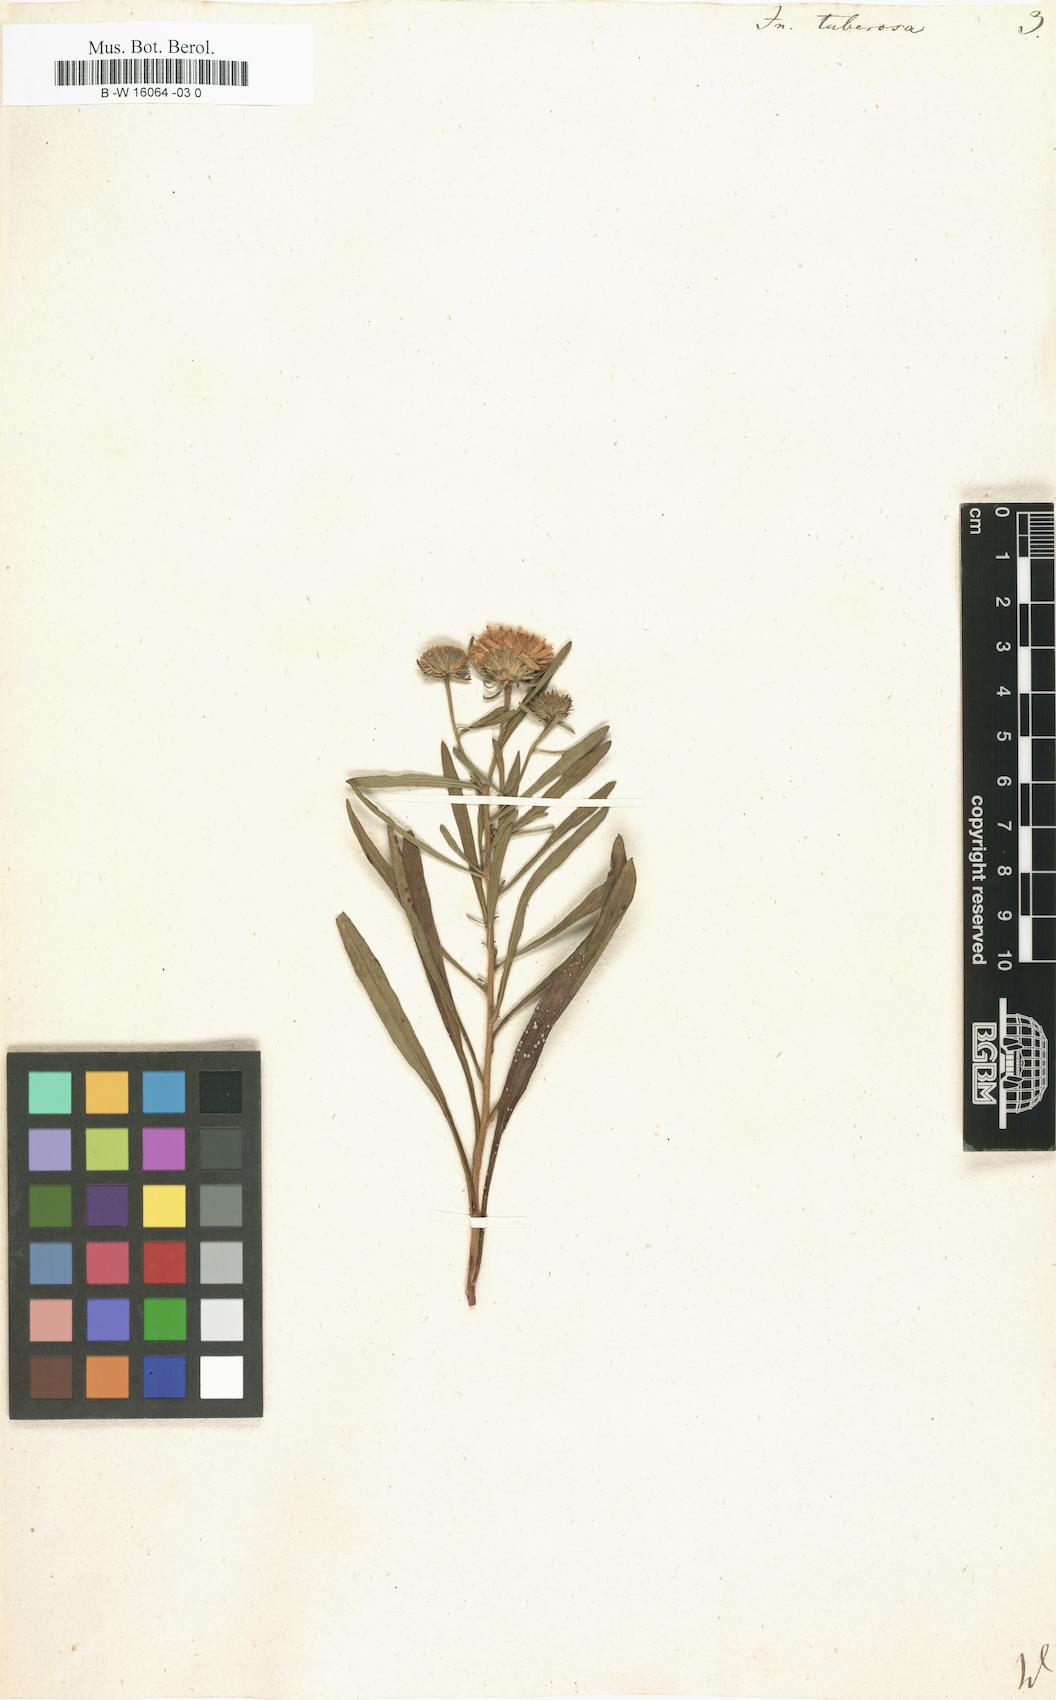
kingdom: Plantae
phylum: Tracheophyta
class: Magnoliopsida
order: Asterales
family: Asteraceae
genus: Jasonia
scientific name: Jasonia tuberosa
